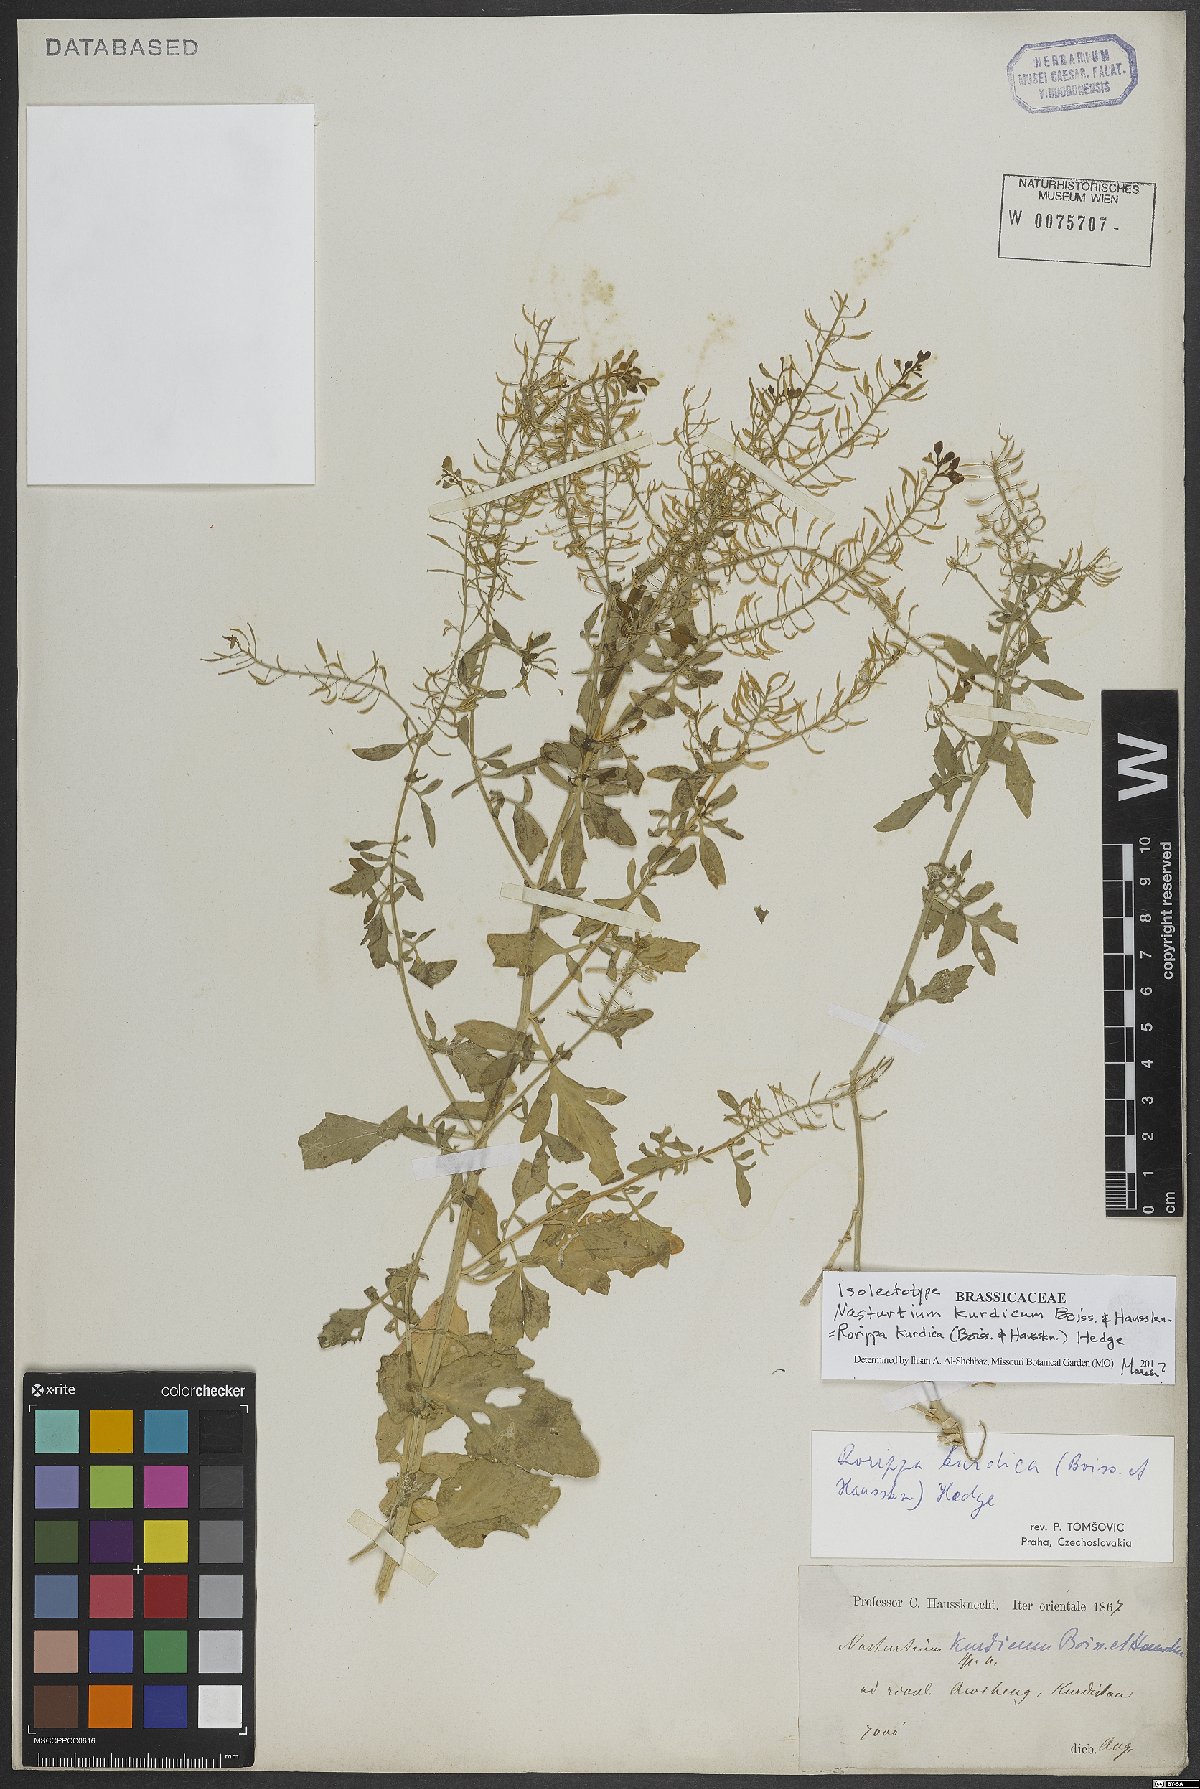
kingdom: Plantae
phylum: Tracheophyta
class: Magnoliopsida
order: Brassicales
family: Brassicaceae
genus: Rorippa
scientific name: Rorippa kurdica
